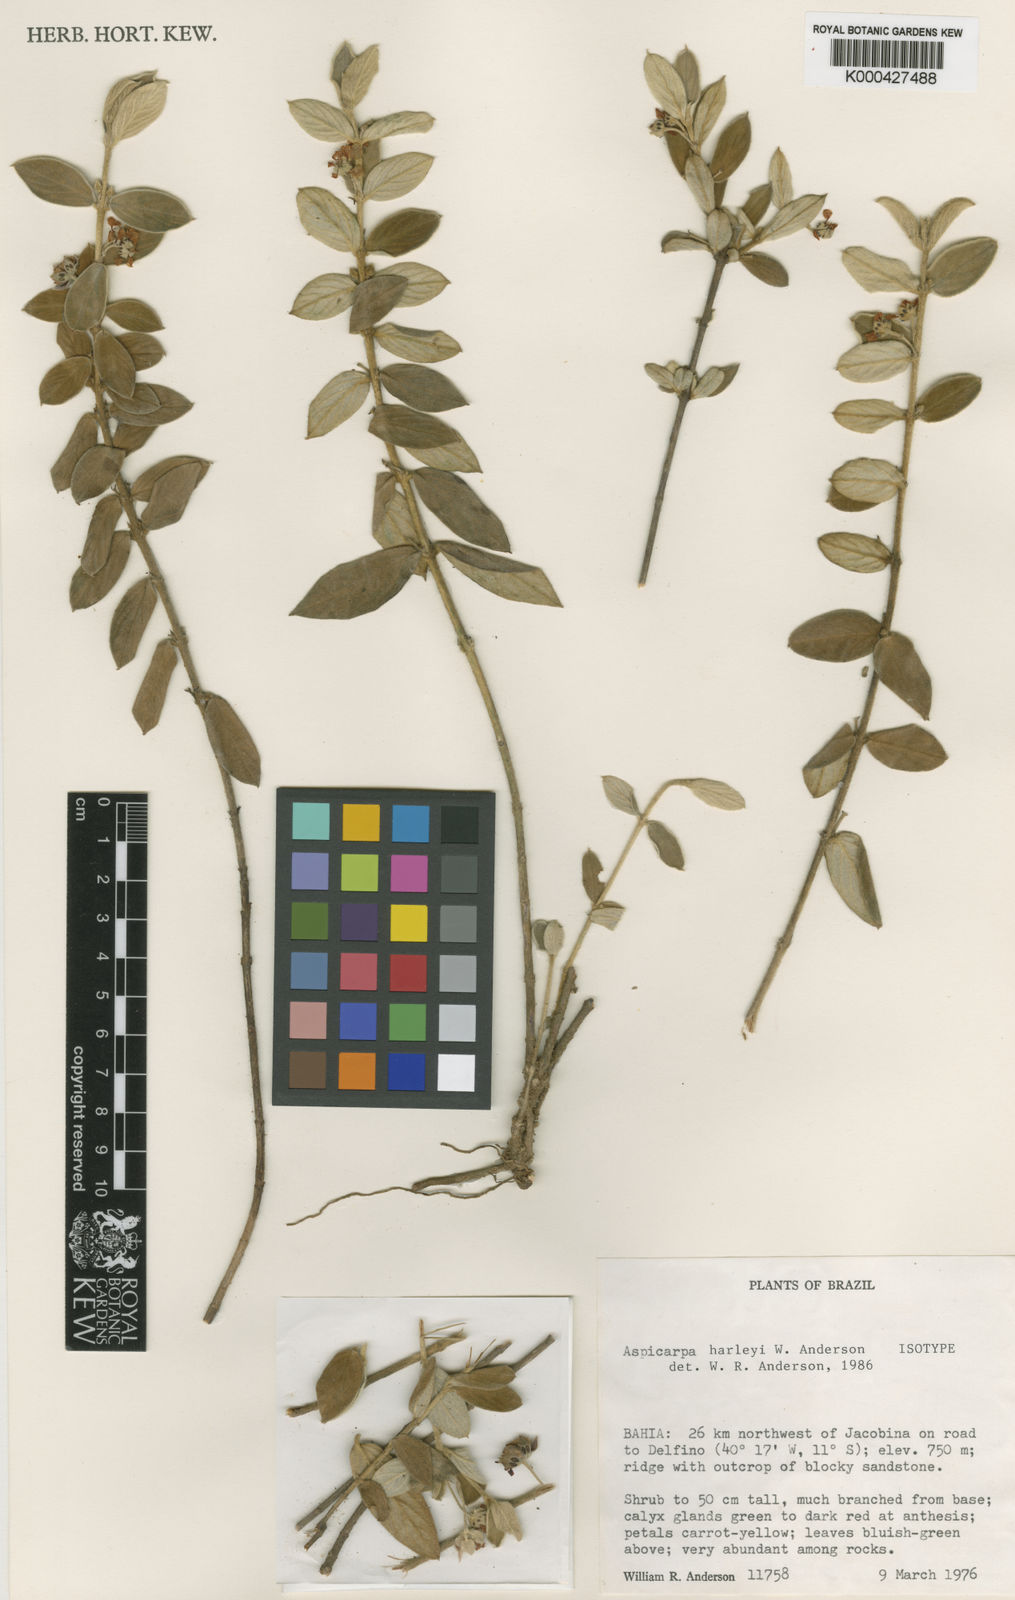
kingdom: Plantae
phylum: Tracheophyta
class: Magnoliopsida
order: Malpighiales
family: Malpighiaceae
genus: Aspicarpa
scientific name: Aspicarpa harleyi
